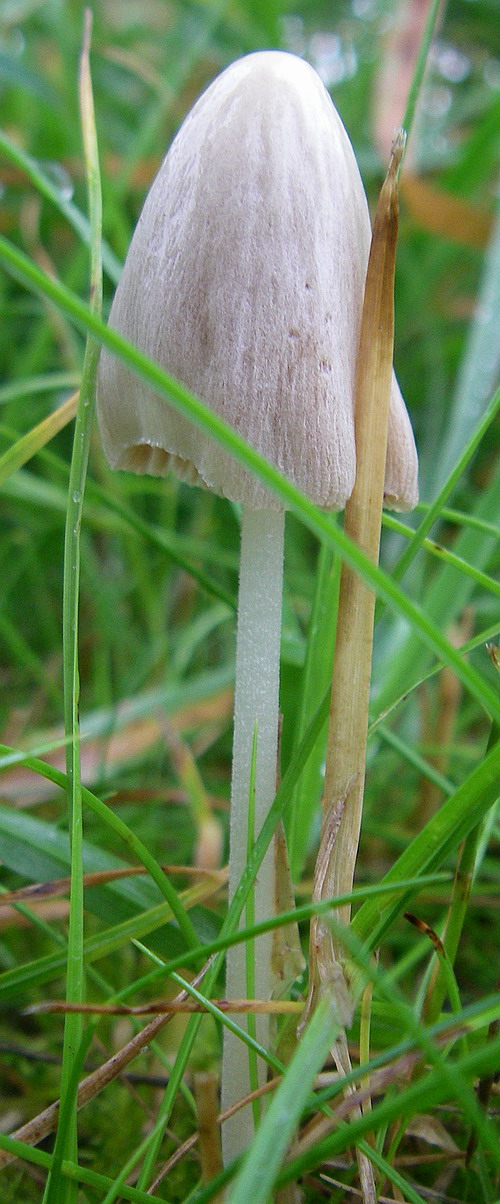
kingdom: Fungi
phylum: Basidiomycota
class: Agaricomycetes
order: Agaricales
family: Bolbitiaceae
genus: Conocybe
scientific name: Conocybe apala
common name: mælkehvid keglehat
